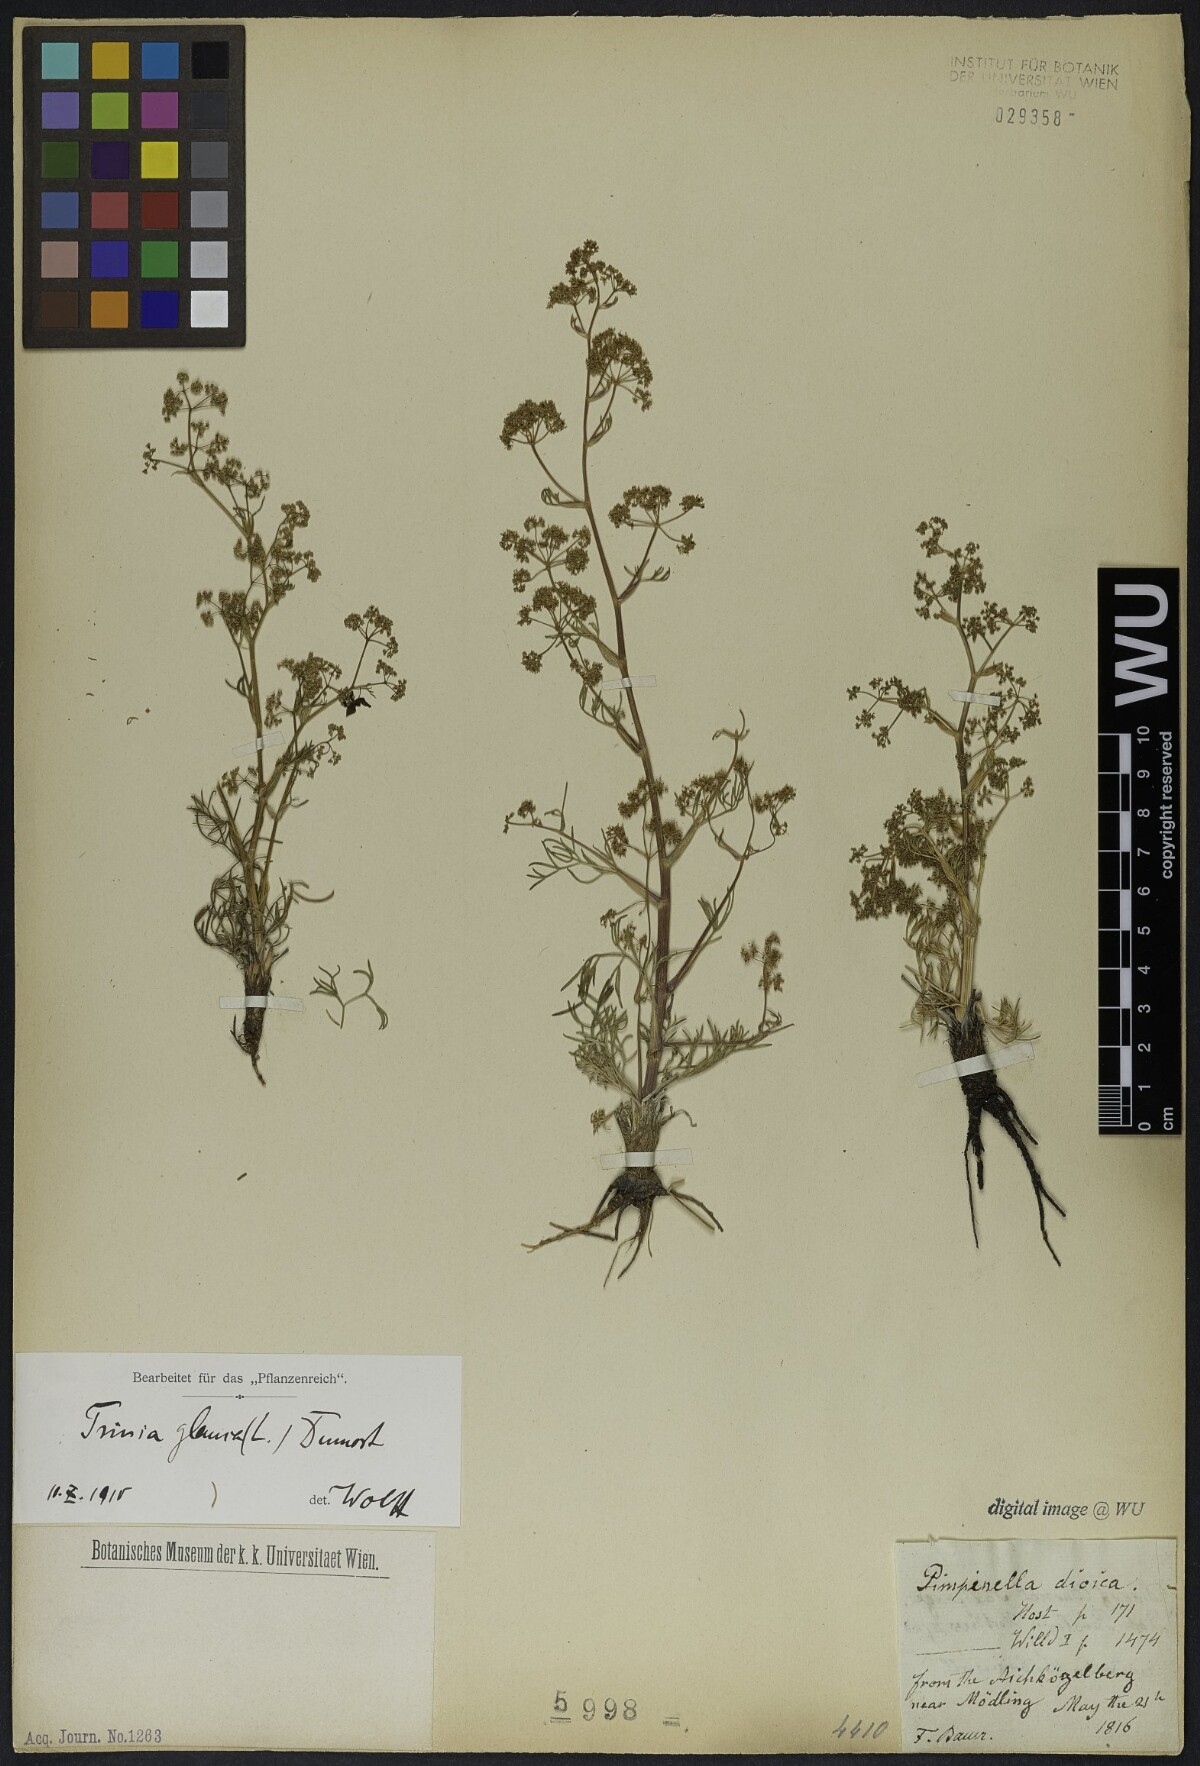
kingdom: Plantae
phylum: Tracheophyta
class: Magnoliopsida
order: Apiales
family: Apiaceae
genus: Trinia
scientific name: Trinia glauca
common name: Honewort
